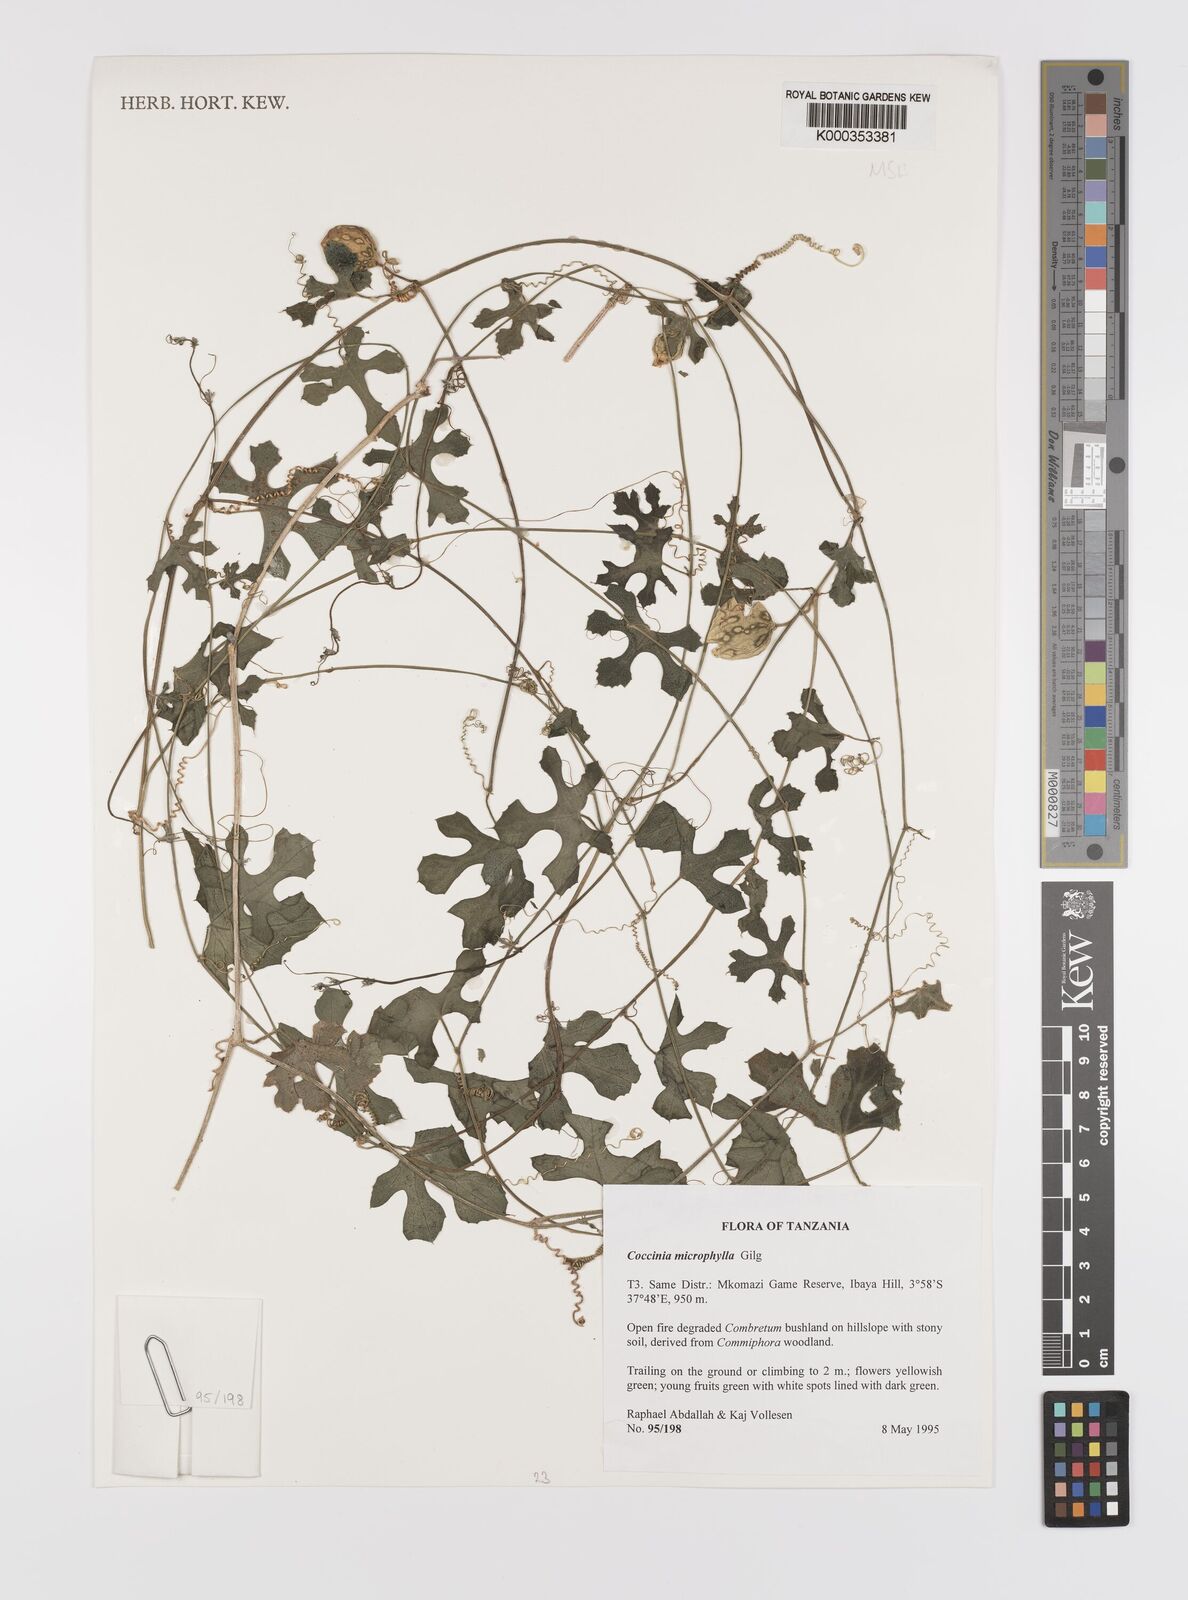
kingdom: Plantae
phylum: Tracheophyta
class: Magnoliopsida
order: Cucurbitales
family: Cucurbitaceae
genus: Coccinia
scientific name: Coccinia microphylla
